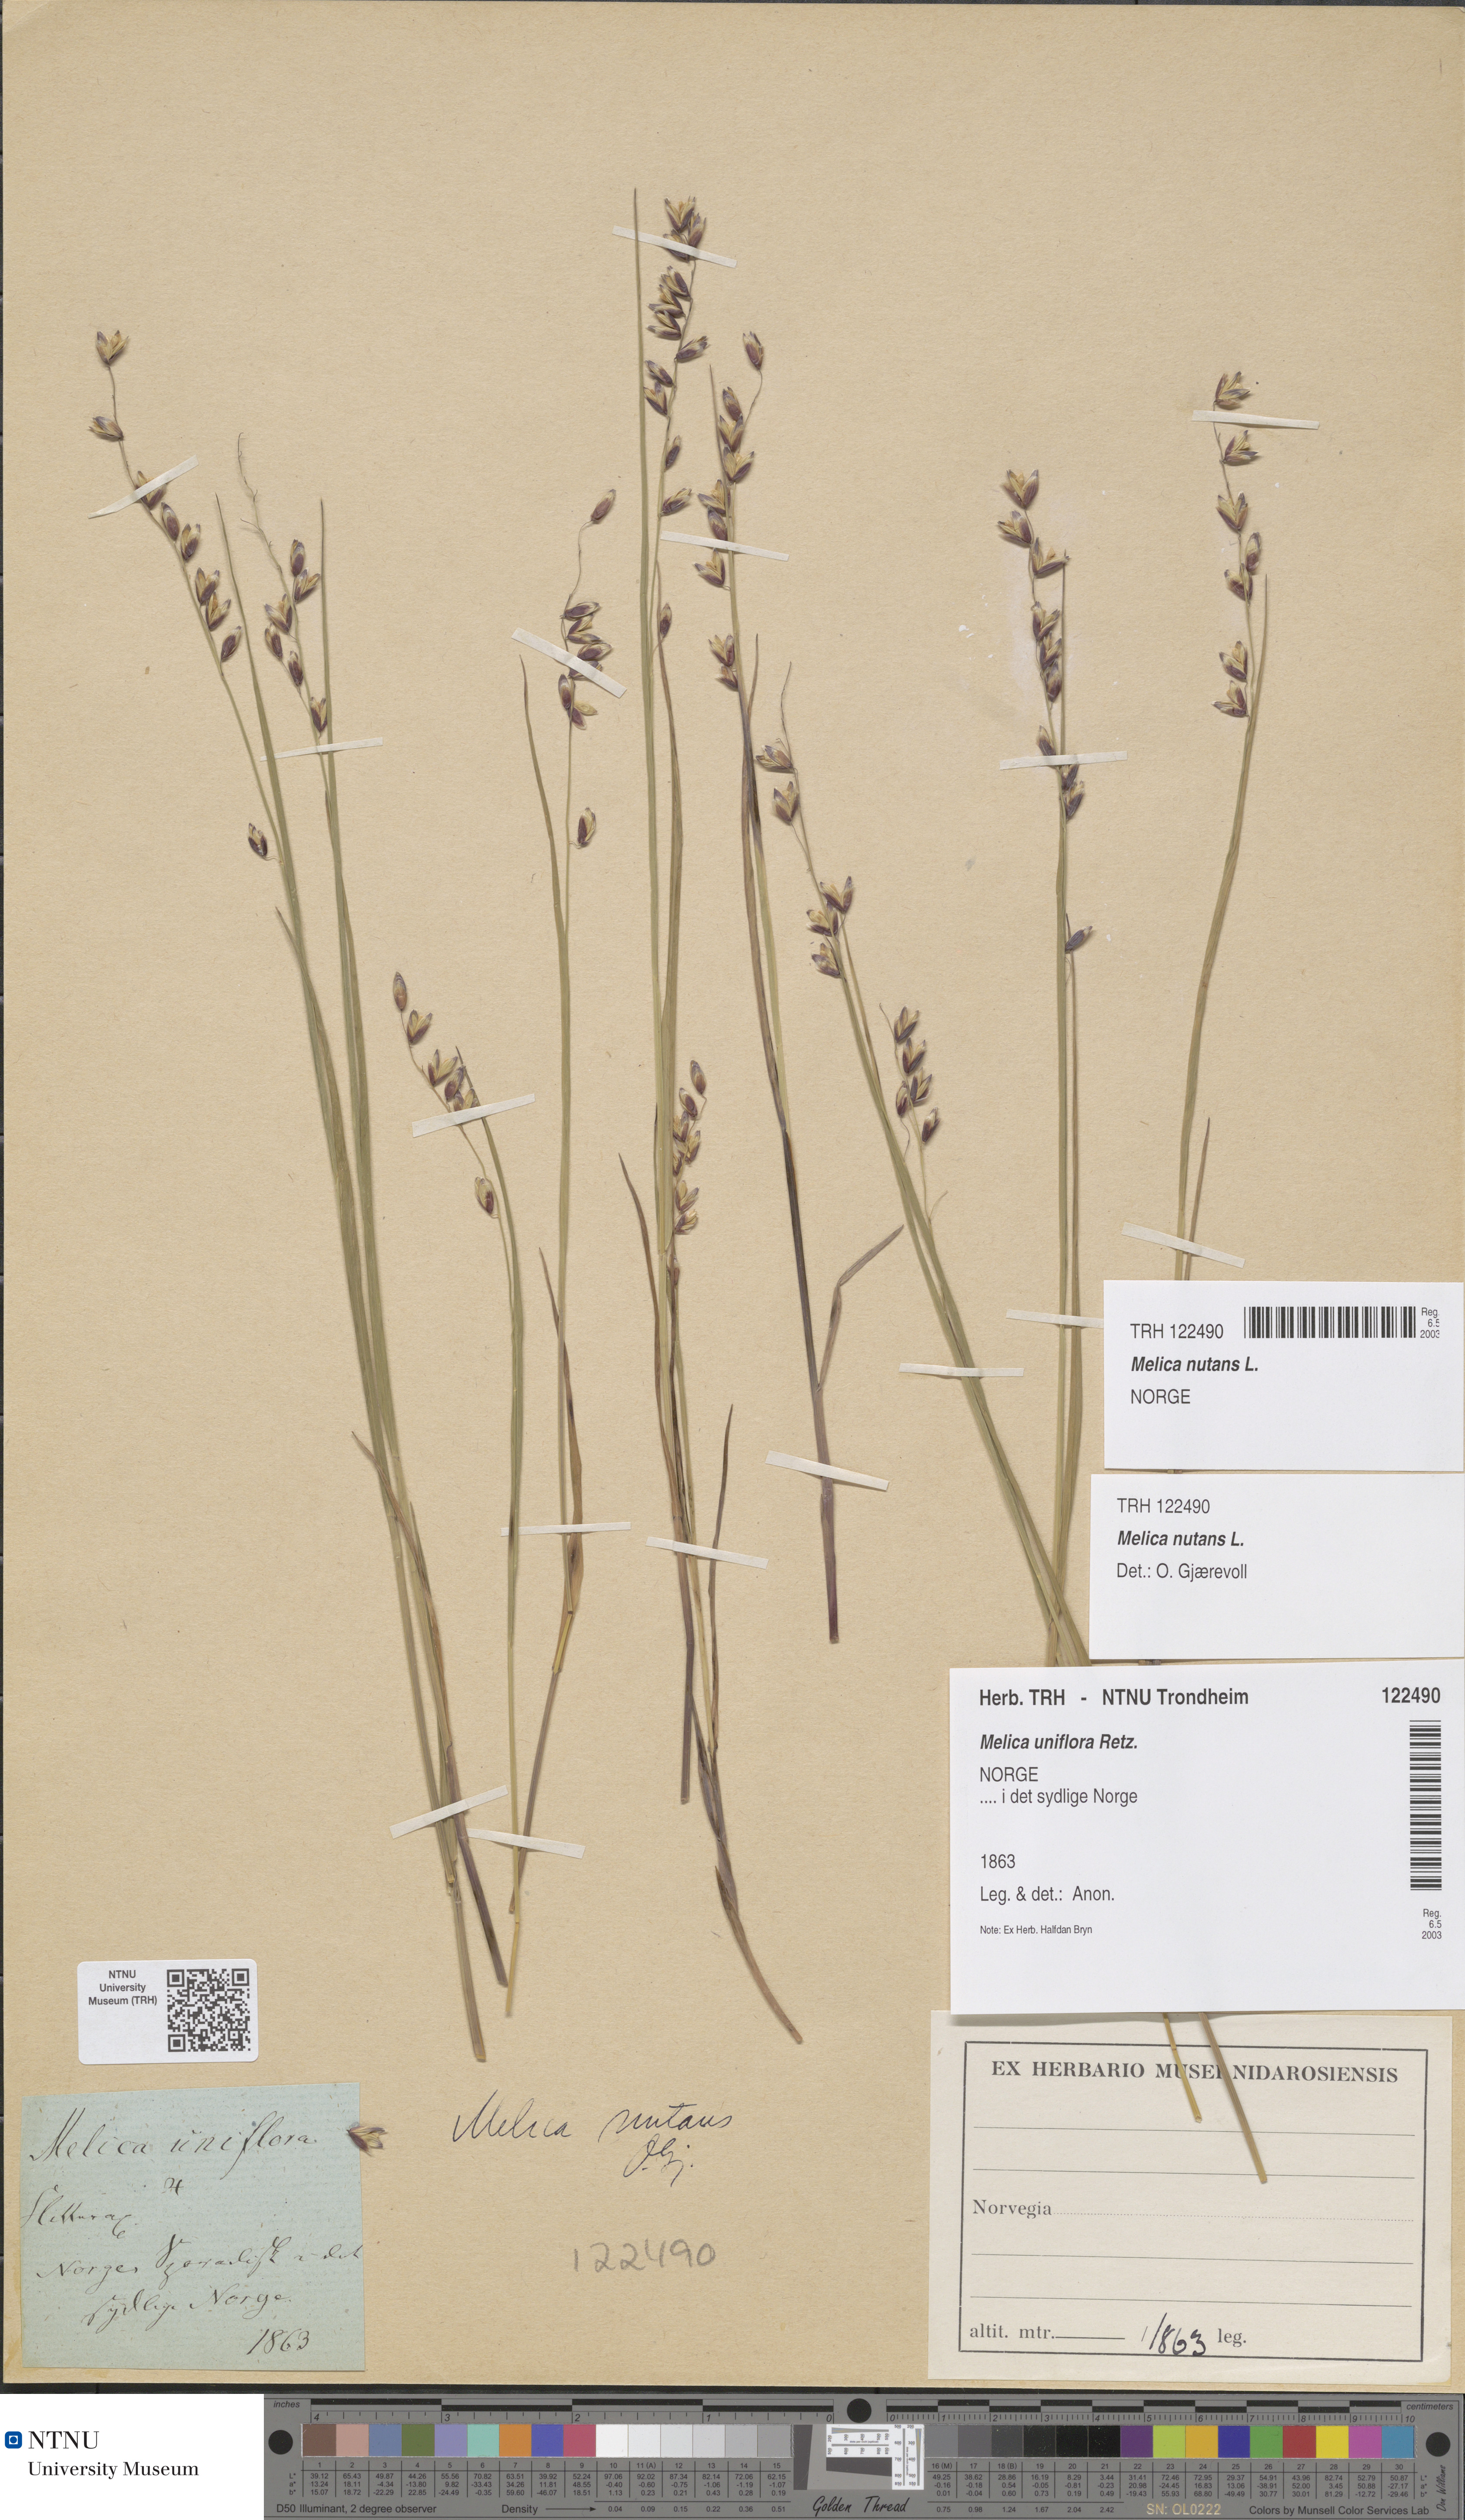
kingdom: Plantae
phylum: Tracheophyta
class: Liliopsida
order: Poales
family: Poaceae
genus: Melica
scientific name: Melica nutans
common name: Mountain melick
